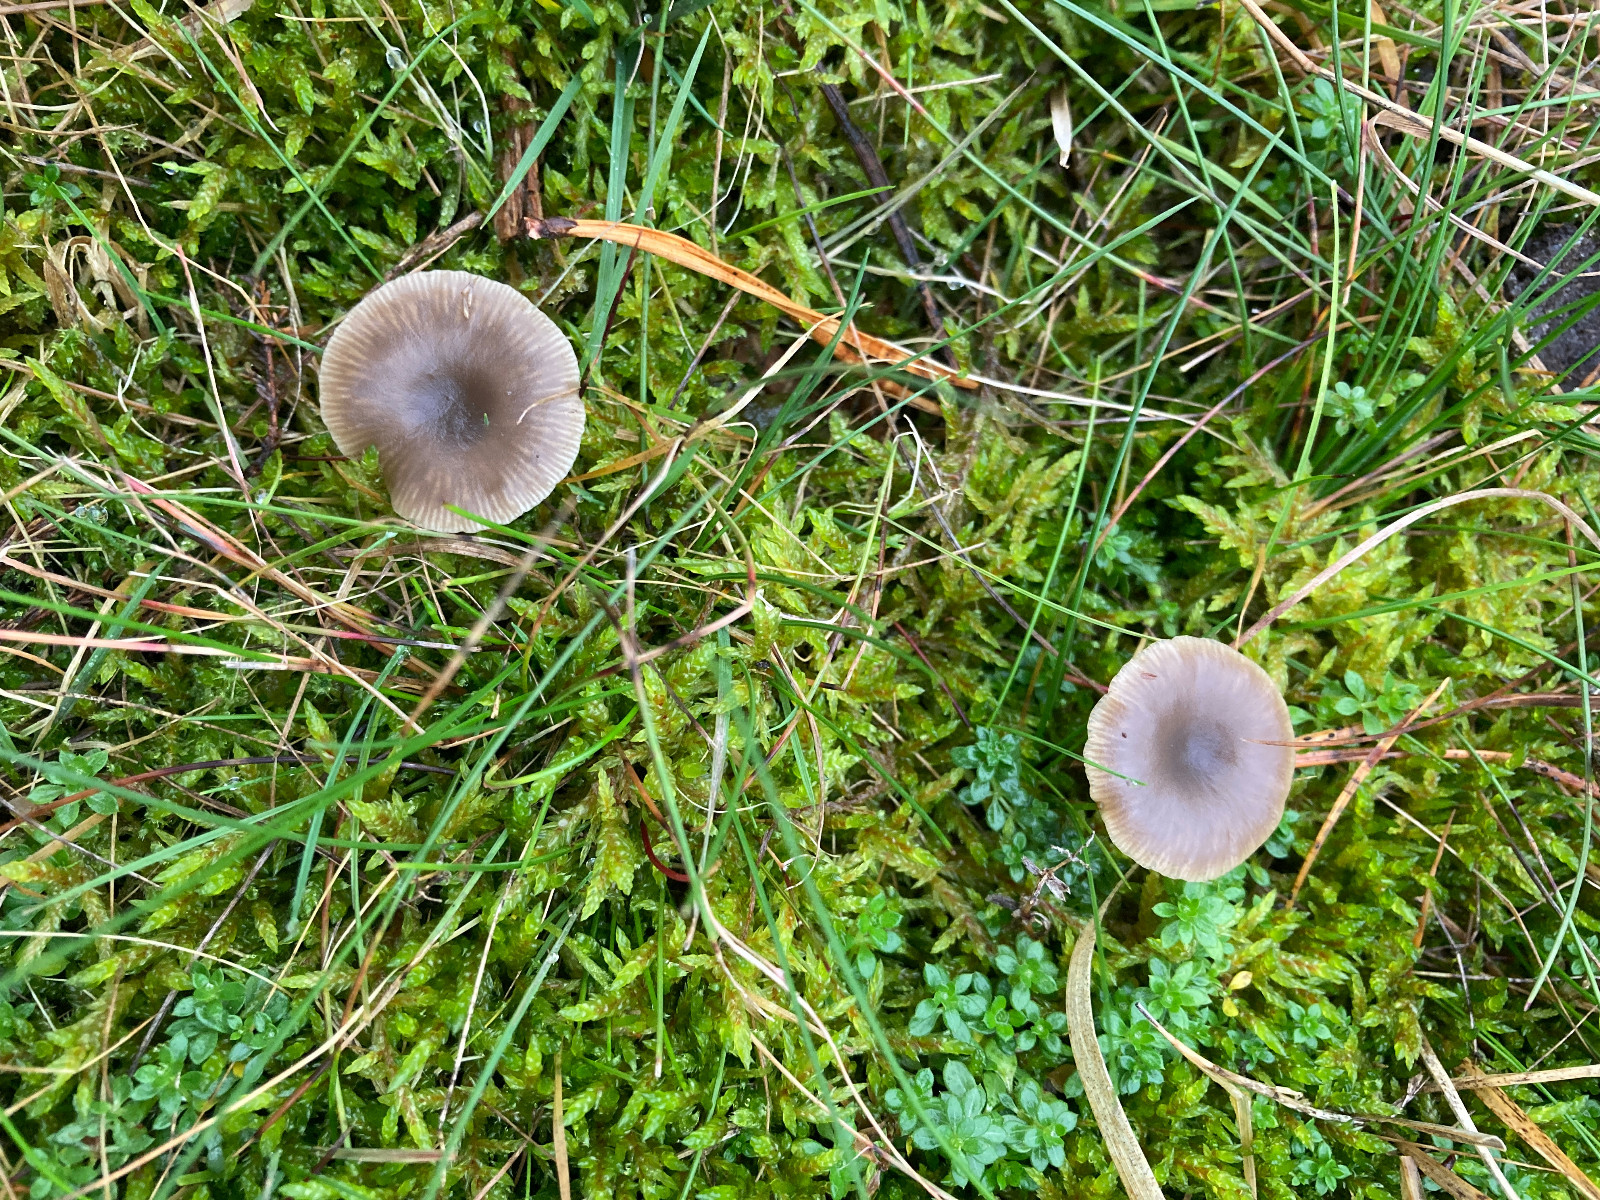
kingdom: Fungi
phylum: Basidiomycota
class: Agaricomycetes
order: Agaricales
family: Tricholomataceae
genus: Clitocybe
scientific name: Clitocybe
